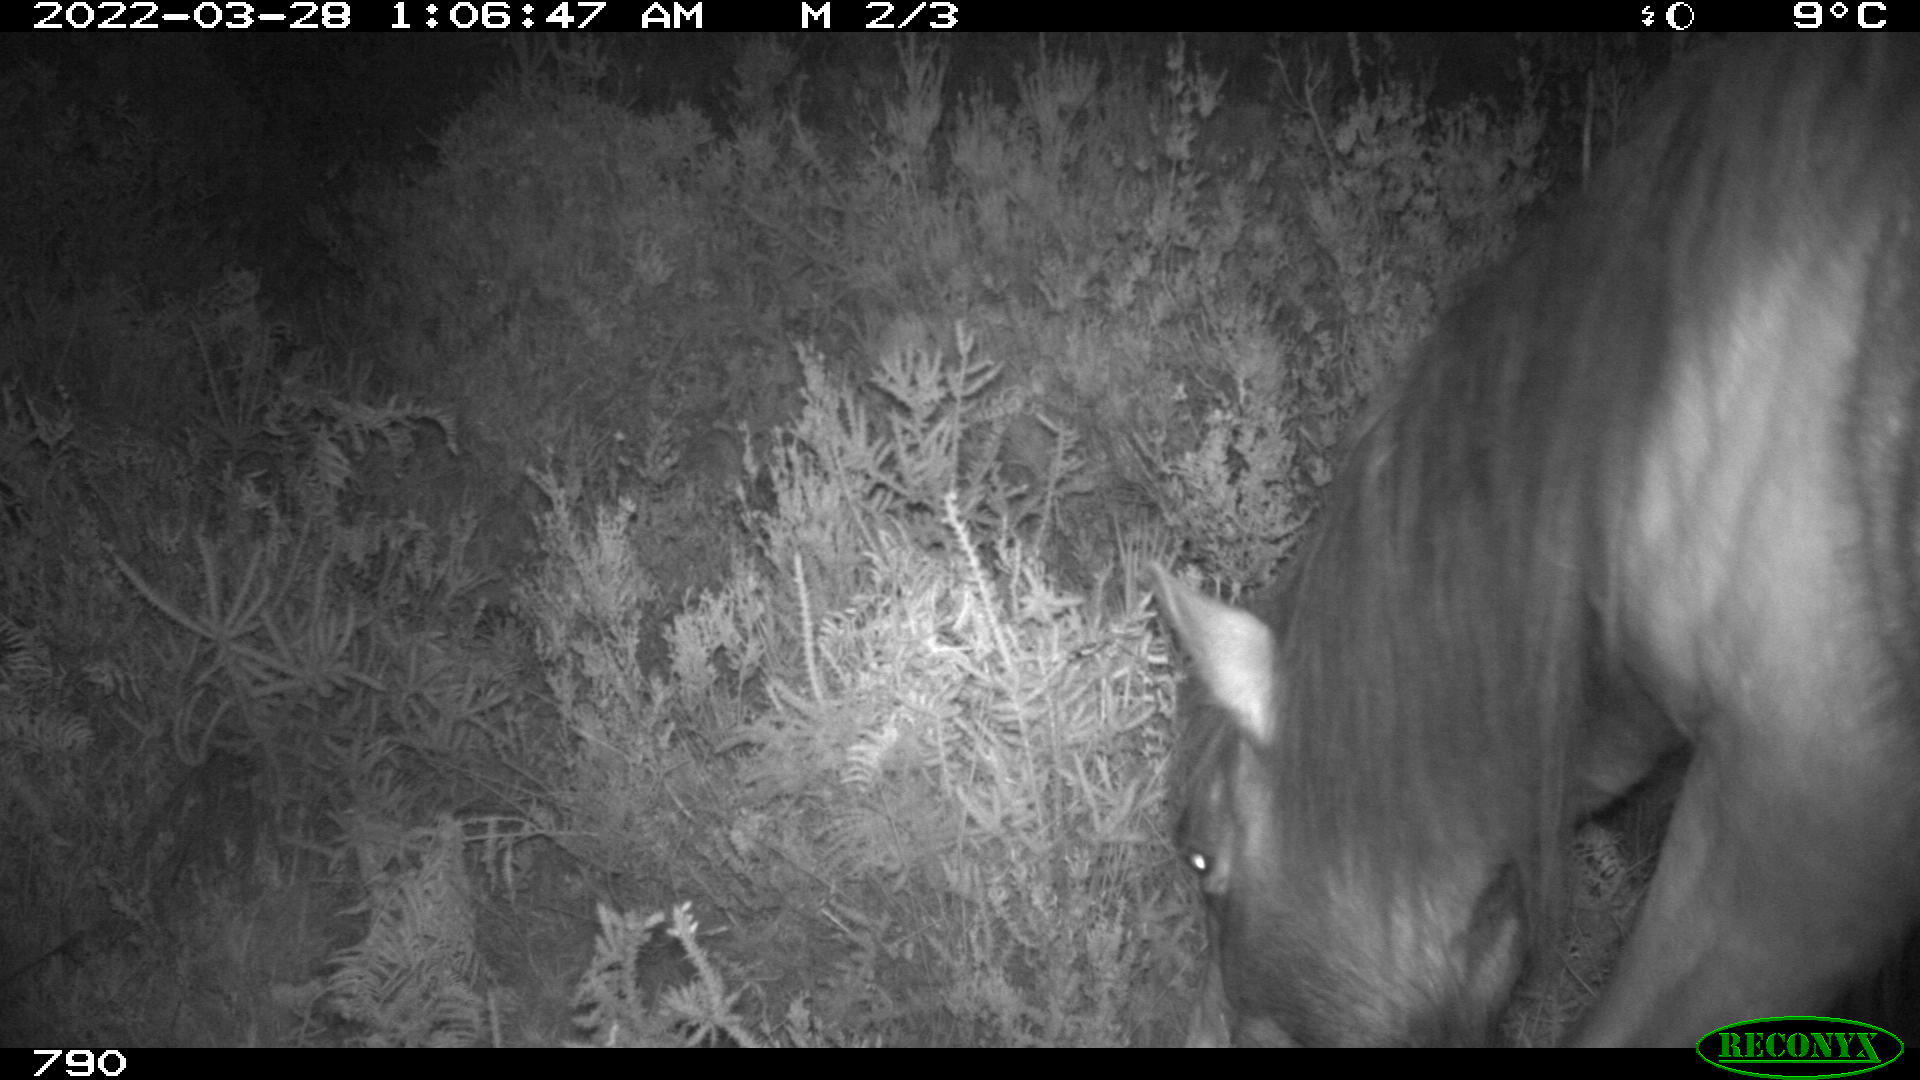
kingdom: Animalia
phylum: Chordata
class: Mammalia
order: Perissodactyla
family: Equidae
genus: Equus
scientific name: Equus caballus
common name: Horse
